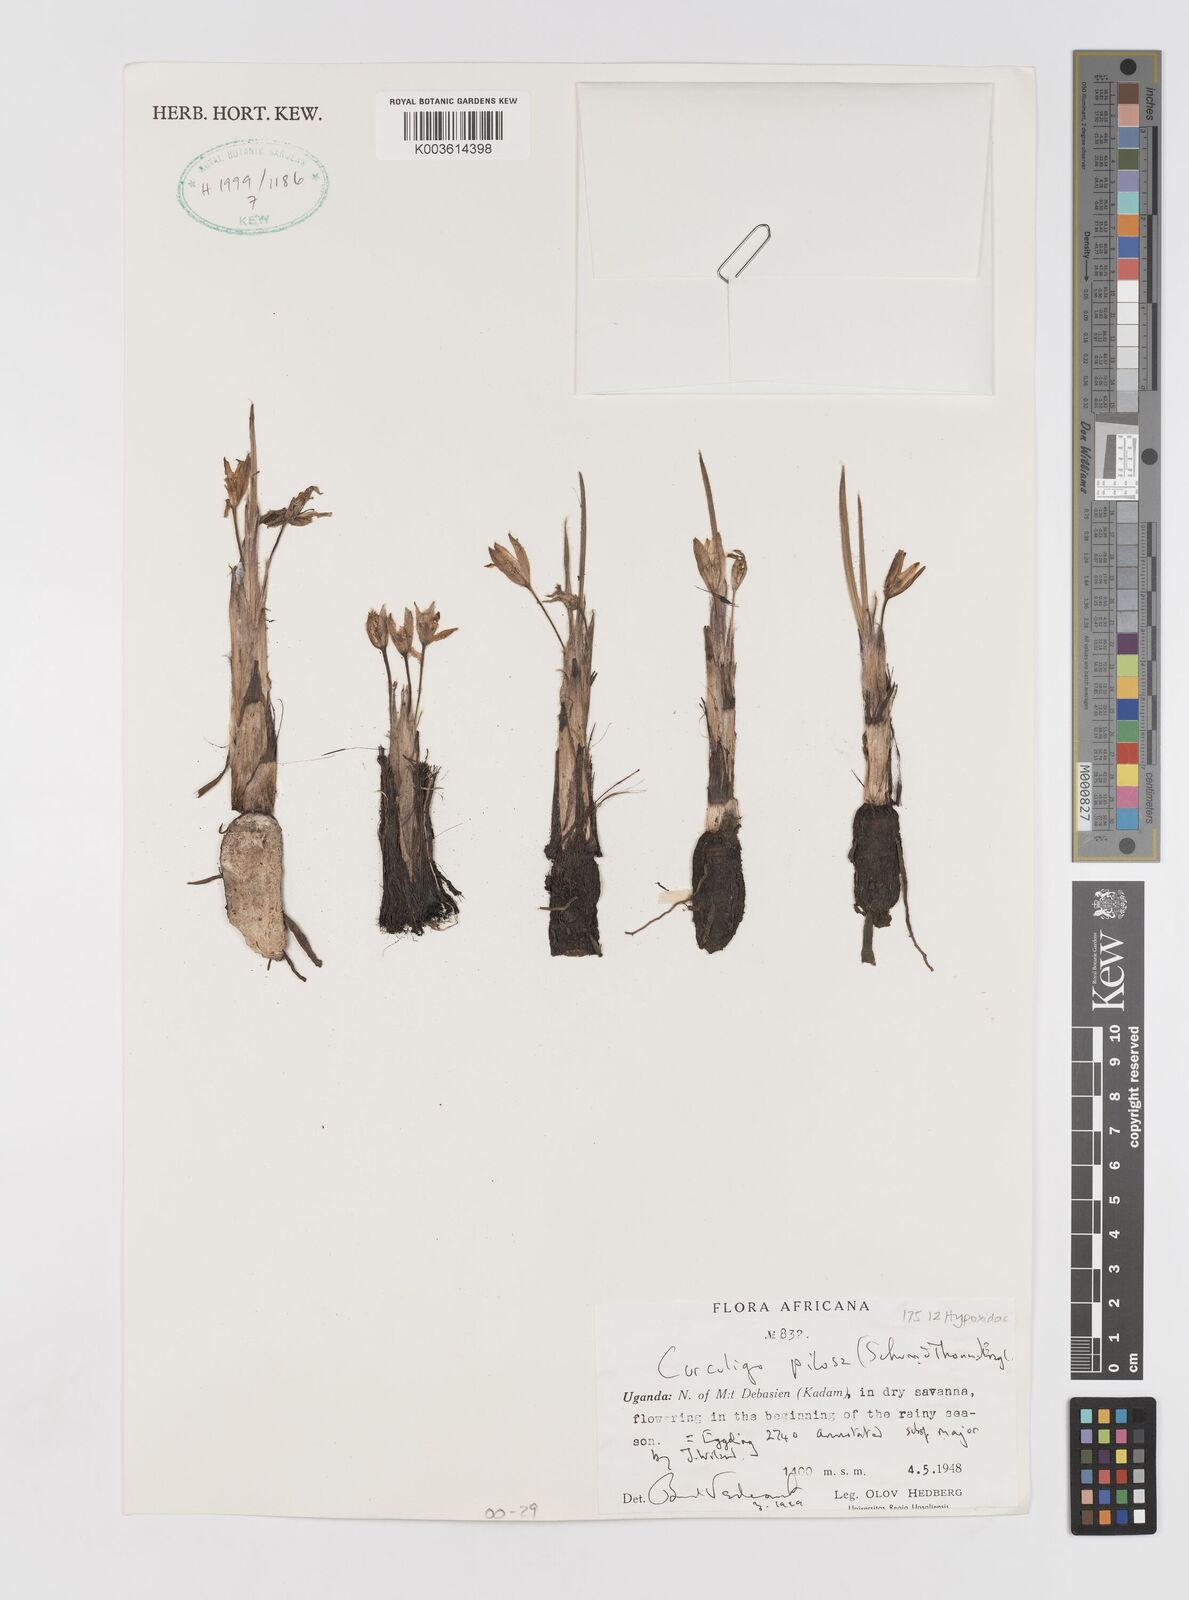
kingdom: Plantae
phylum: Tracheophyta
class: Liliopsida
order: Asparagales
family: Hypoxidaceae
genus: Curculigo
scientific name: Curculigo pilosa
